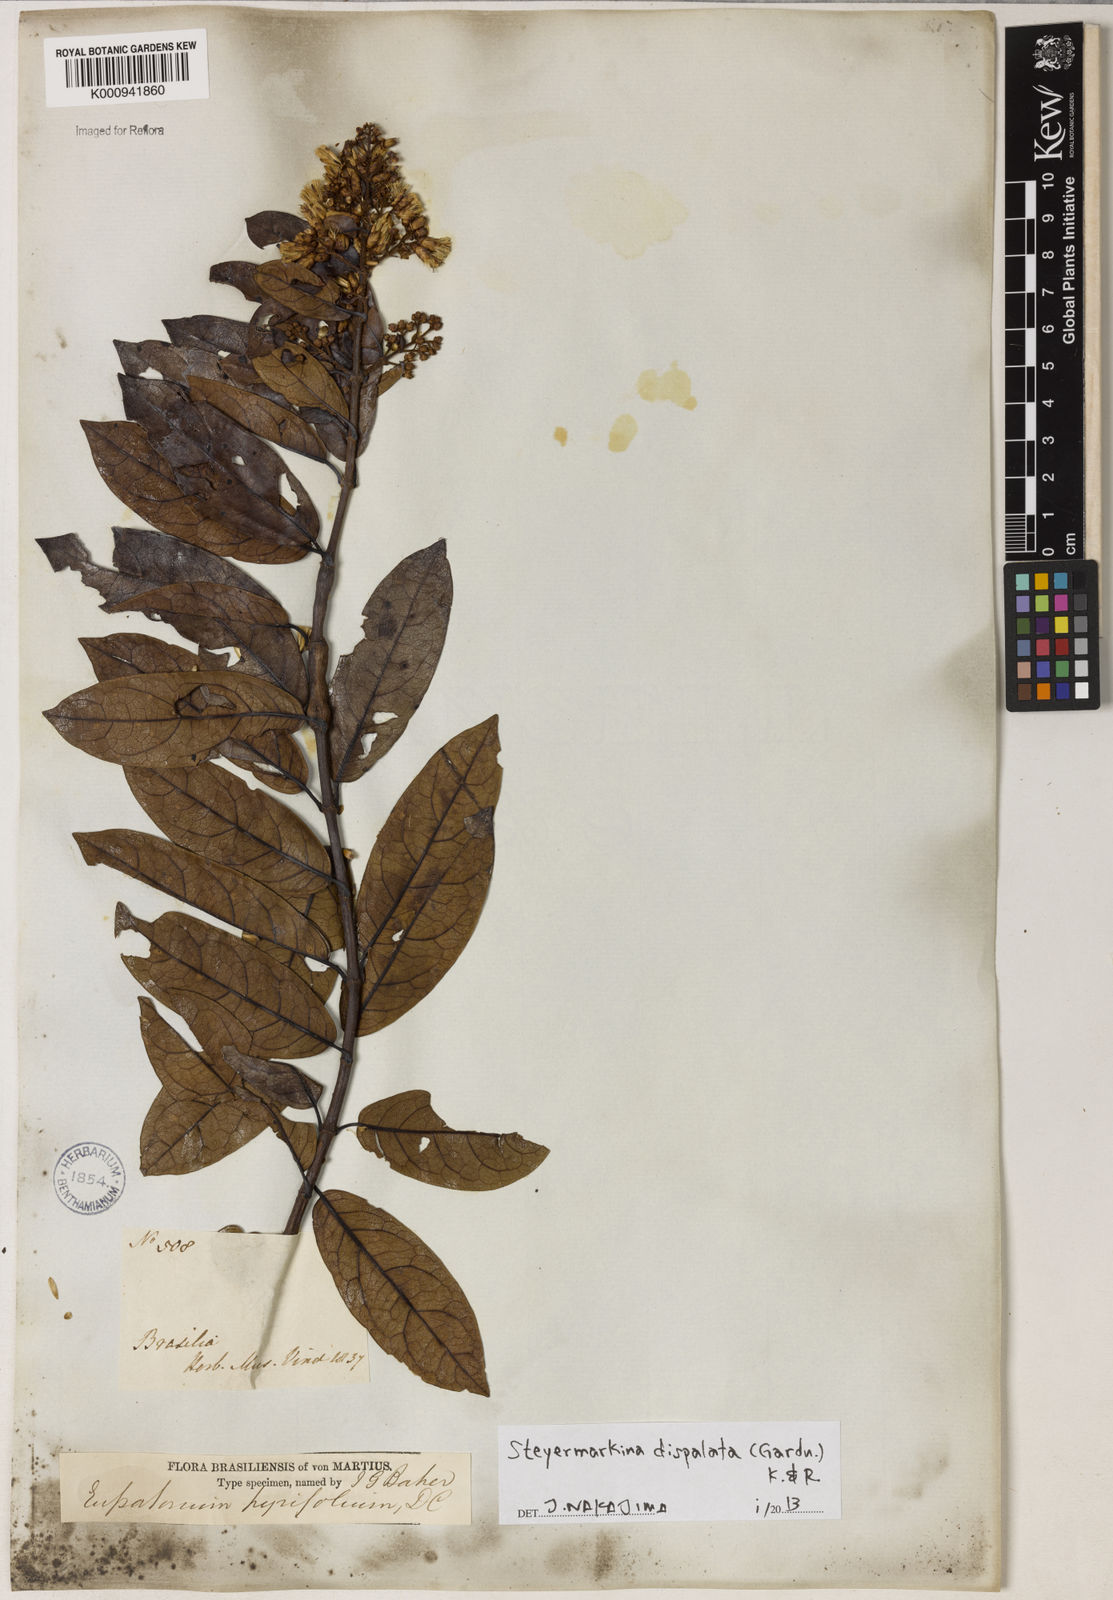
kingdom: Plantae
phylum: Tracheophyta
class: Magnoliopsida
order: Asterales
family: Asteraceae
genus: Steyermarkina
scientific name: Steyermarkina dispalata
